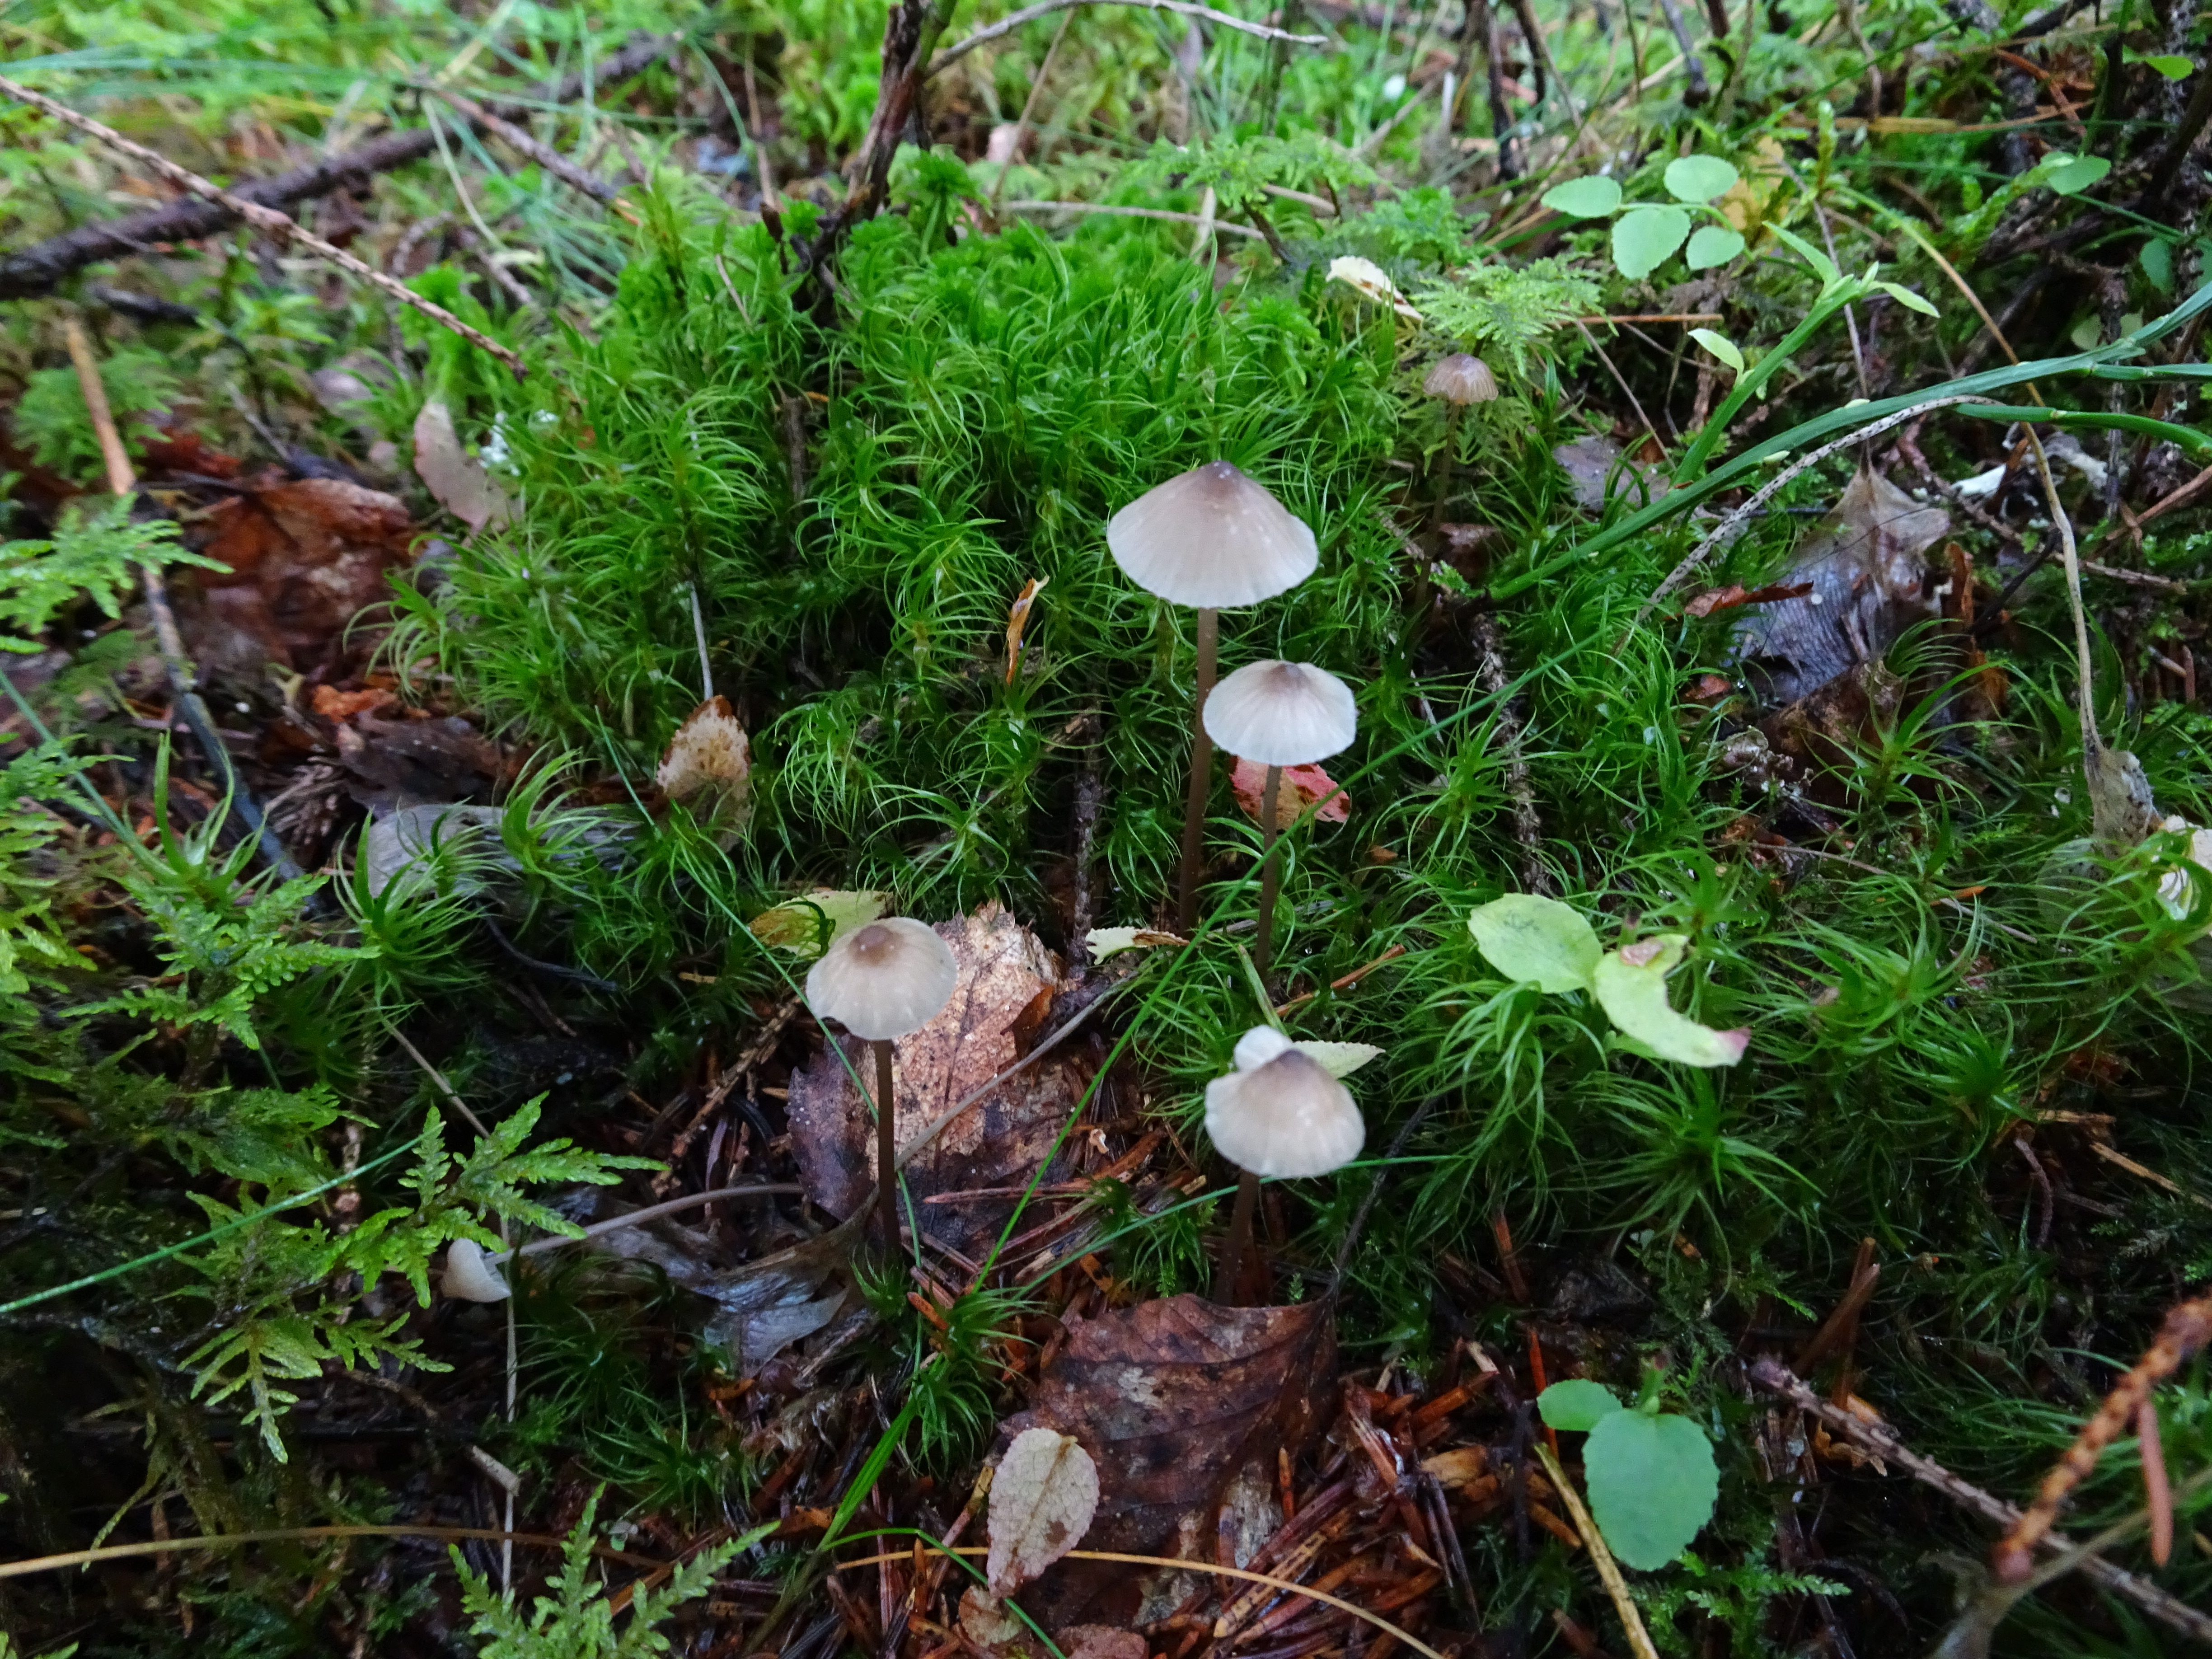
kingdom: Fungi
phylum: Basidiomycota
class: Agaricomycetes
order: Agaricales
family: Mycenaceae
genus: Mycena
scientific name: Mycena galopus
